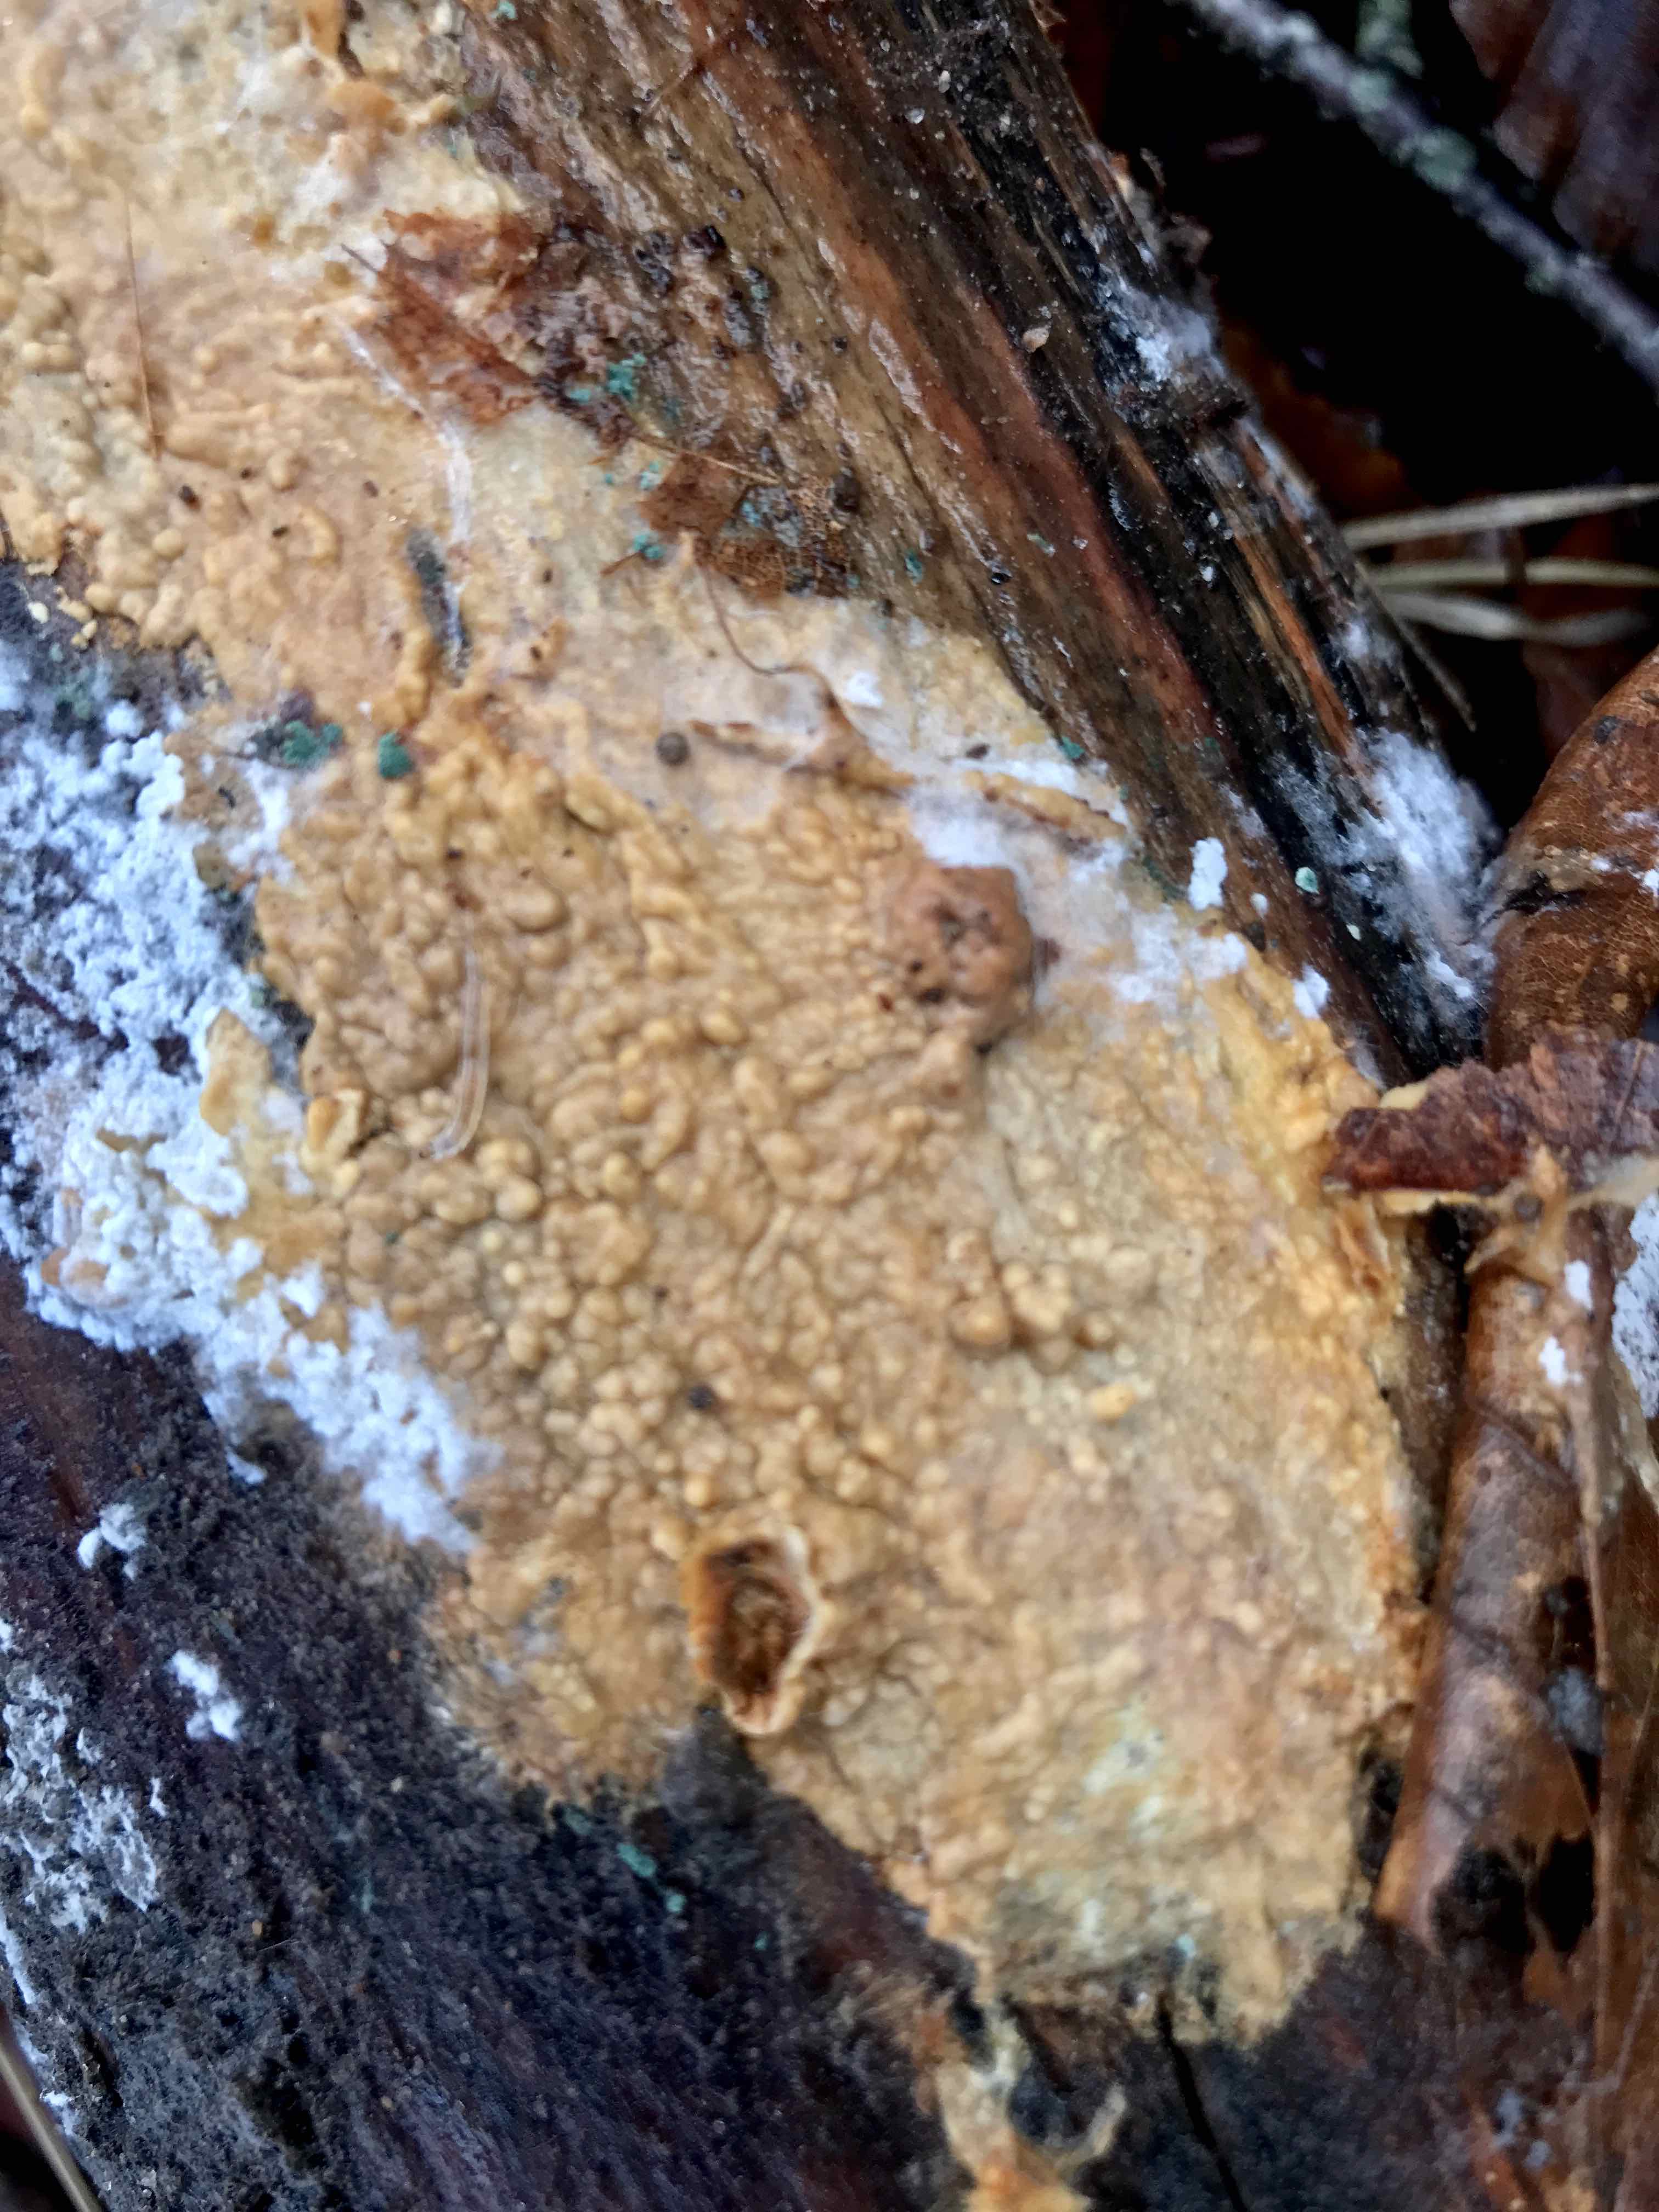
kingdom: Fungi
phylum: Basidiomycota
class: Agaricomycetes
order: Agaricales
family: Physalacriaceae
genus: Cylindrobasidium
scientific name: Cylindrobasidium evolvens
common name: sprækkehinde
